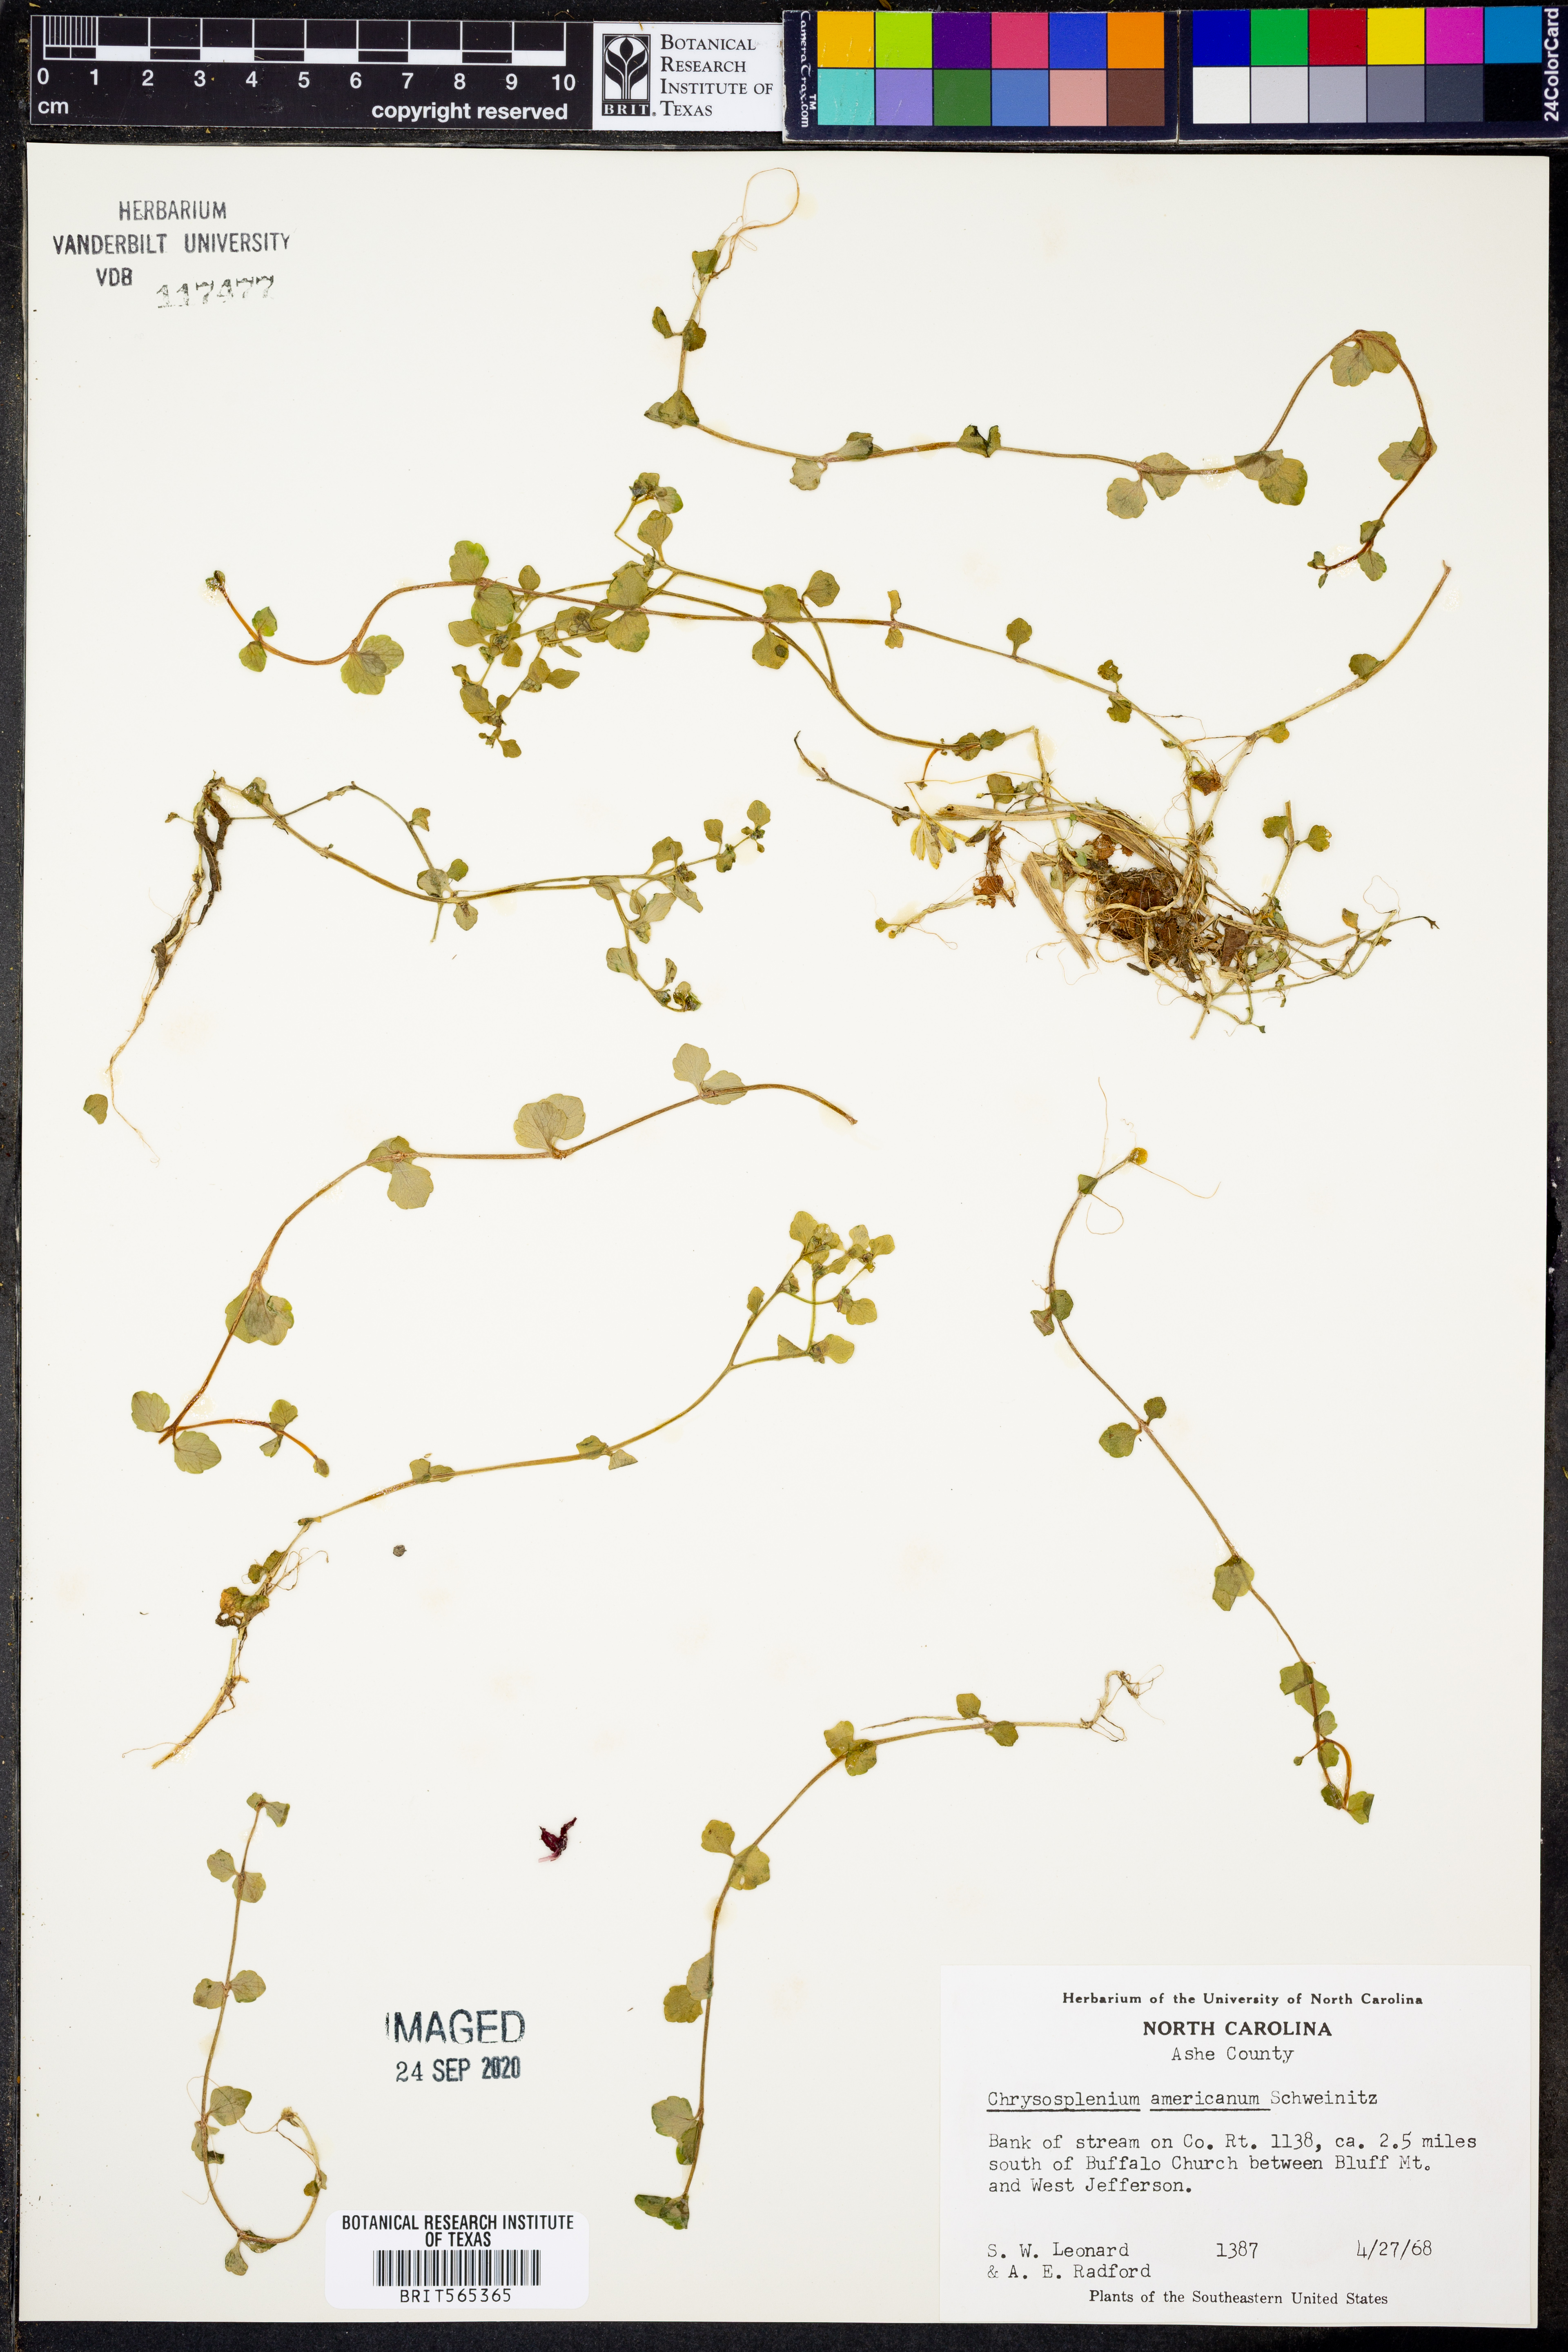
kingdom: Plantae
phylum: Tracheophyta
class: Magnoliopsida
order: Saxifragales
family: Saxifragaceae
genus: Chrysosplenium
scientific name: Chrysosplenium americanum
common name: American golden-saxifrage
